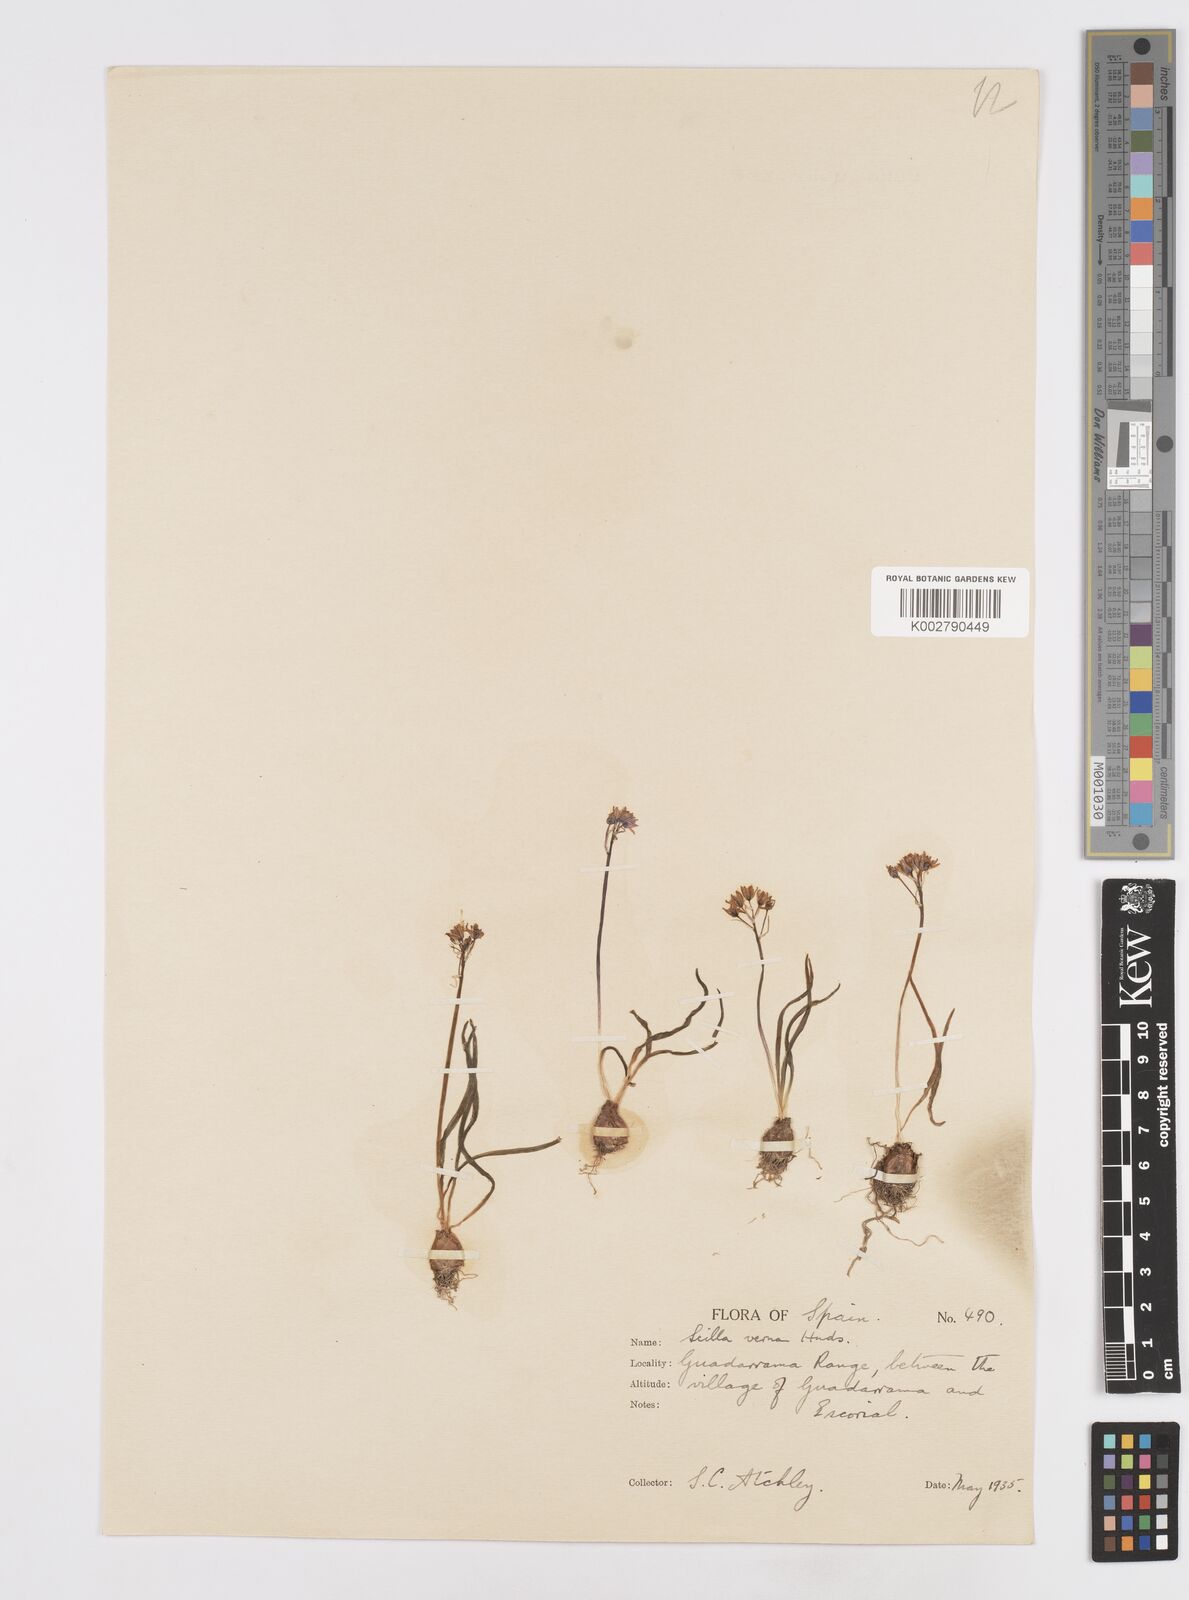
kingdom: Plantae
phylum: Tracheophyta
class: Liliopsida
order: Asparagales
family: Asparagaceae
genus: Scilla
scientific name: Scilla verna
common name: Spring squill
